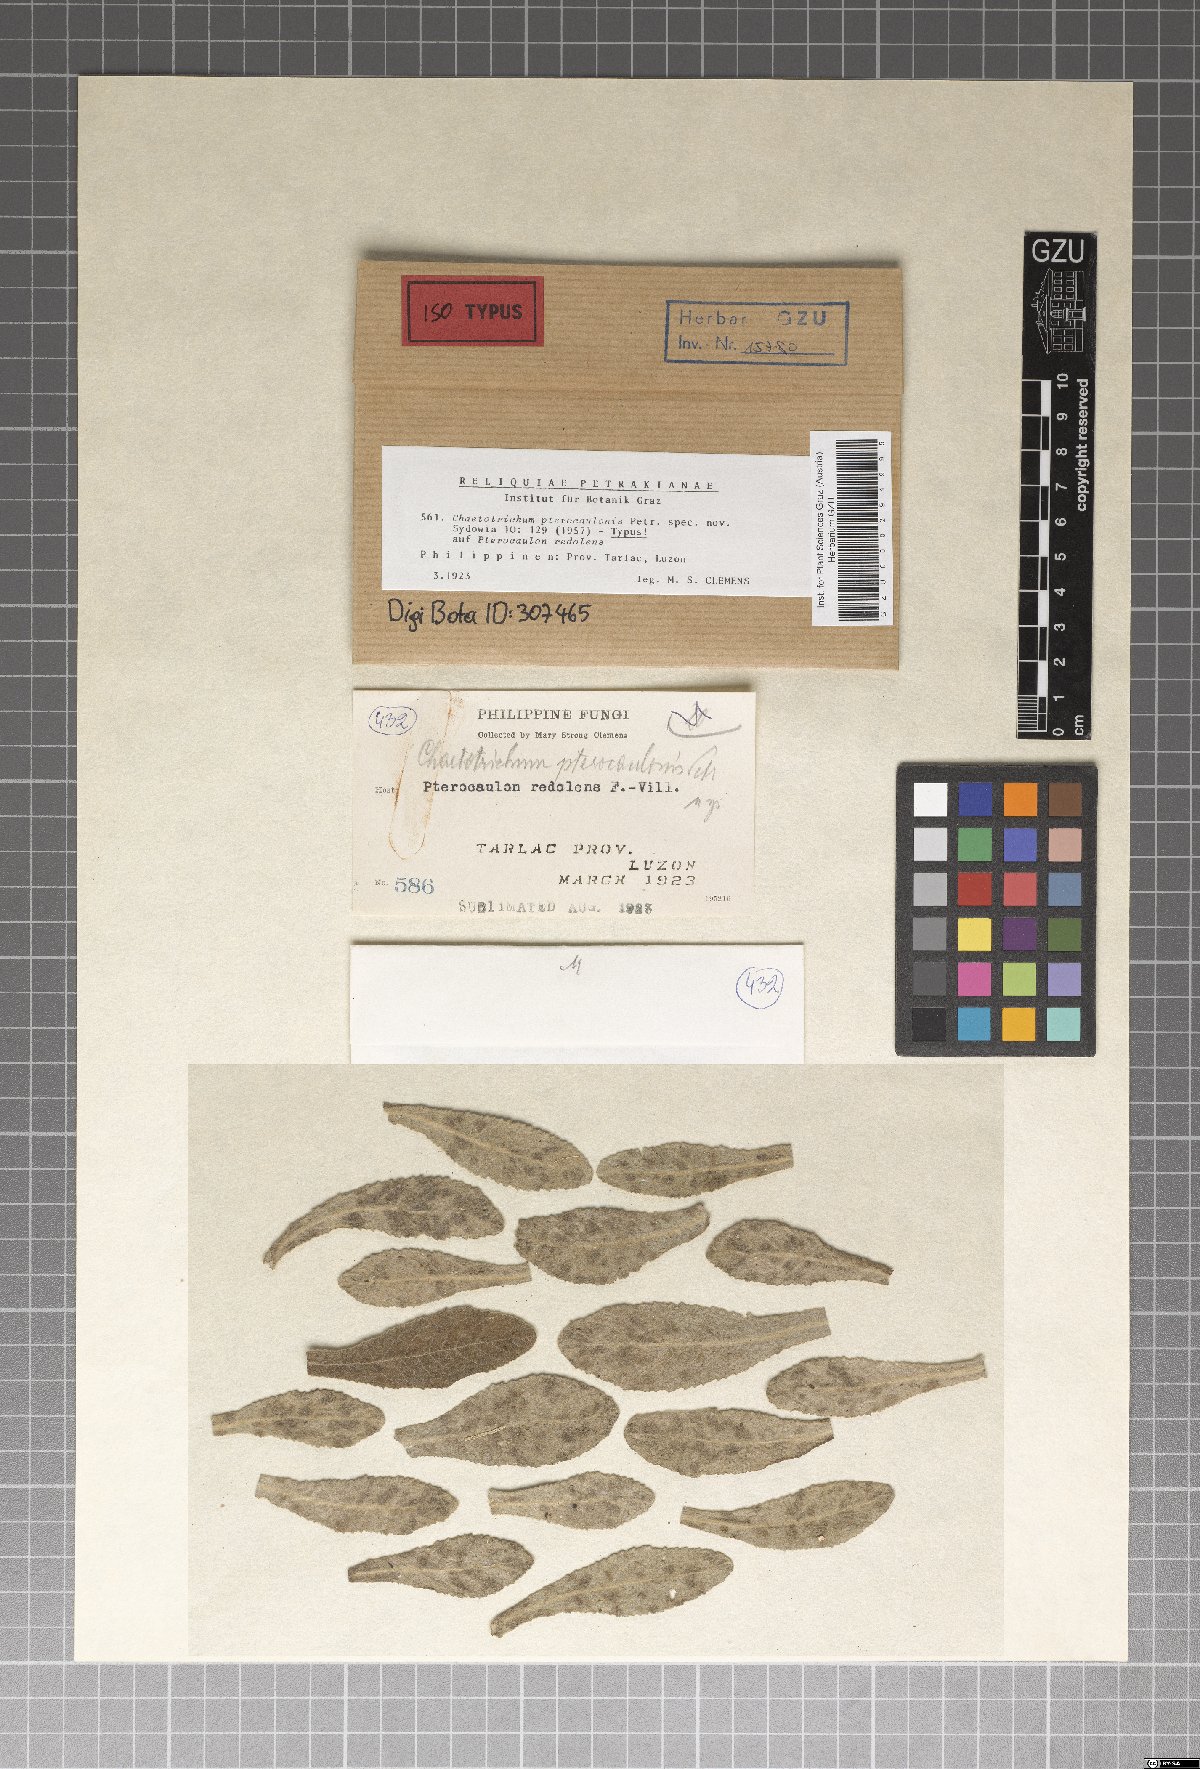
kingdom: Fungi
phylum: Ascomycota
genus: Chaetotrichum
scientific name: Chaetotrichum
